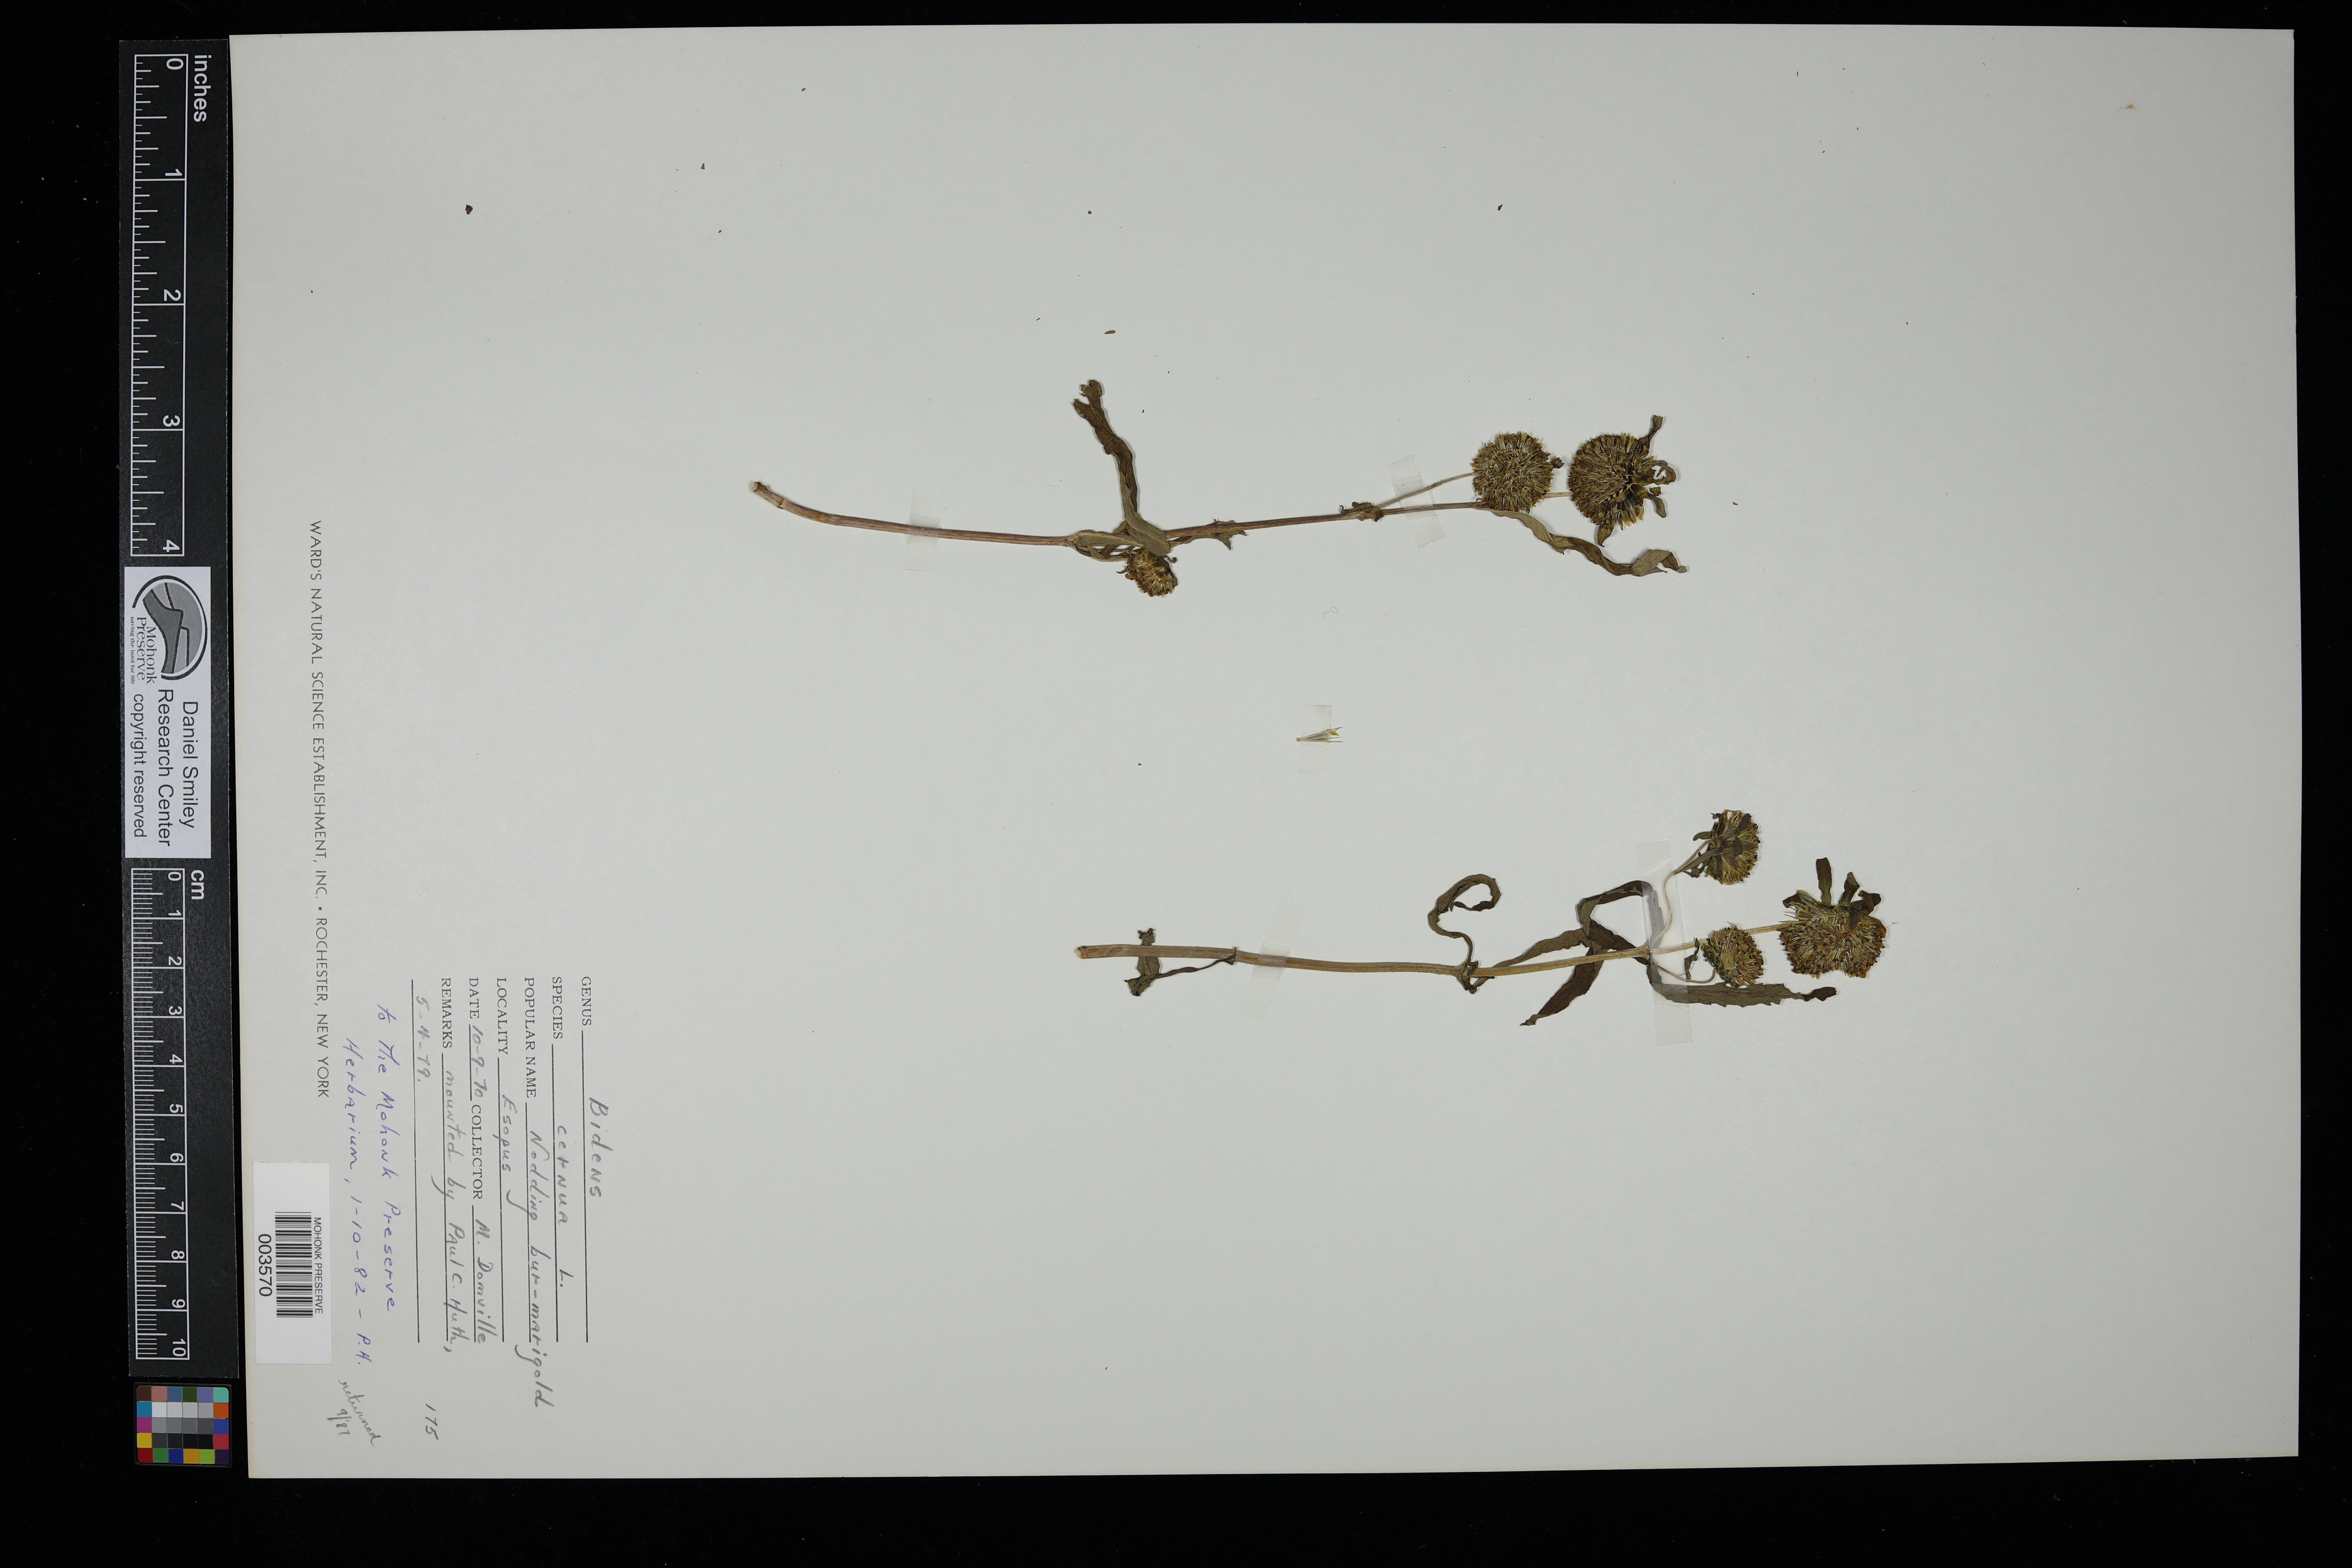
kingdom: Plantae
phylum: Tracheophyta
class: Magnoliopsida
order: Asterales
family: Asteraceae
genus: Bidens
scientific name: Bidens cernua
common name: Nodding bur-marigold
